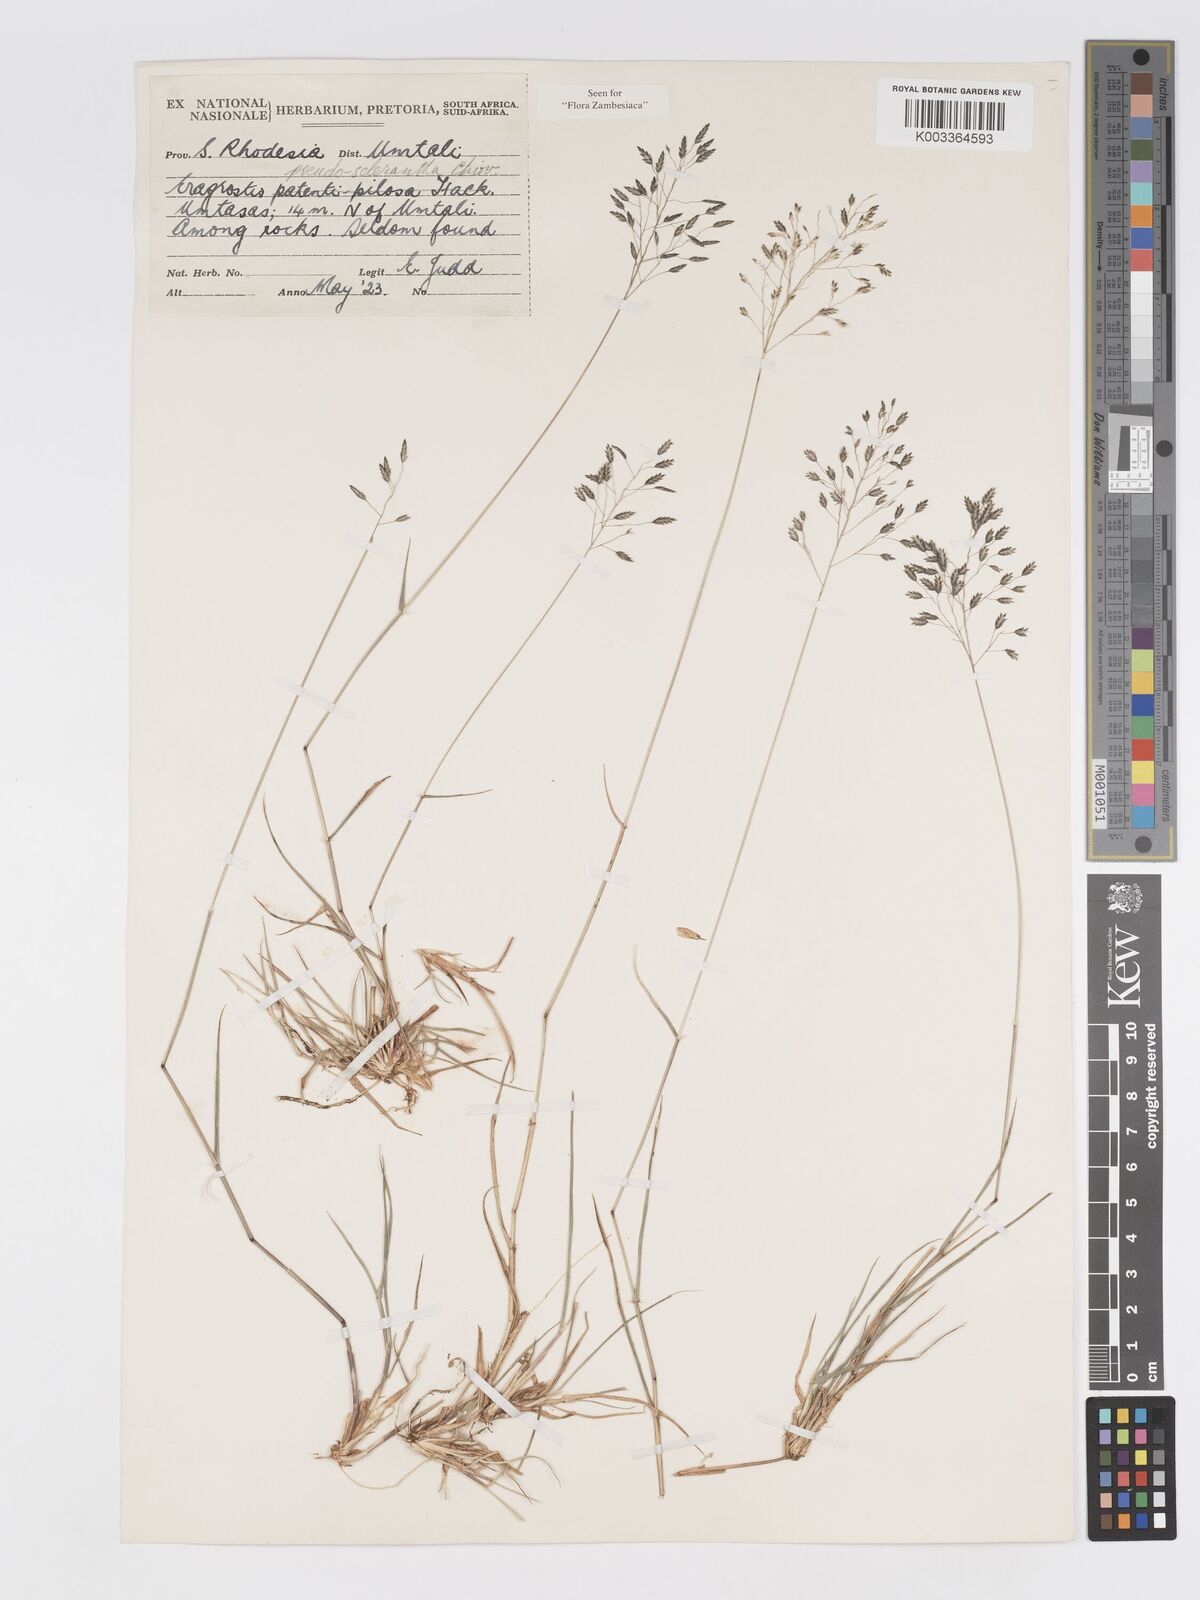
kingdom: Plantae
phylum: Tracheophyta
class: Liliopsida
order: Poales
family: Poaceae
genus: Eragrostis
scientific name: Eragrostis patentipilosa
